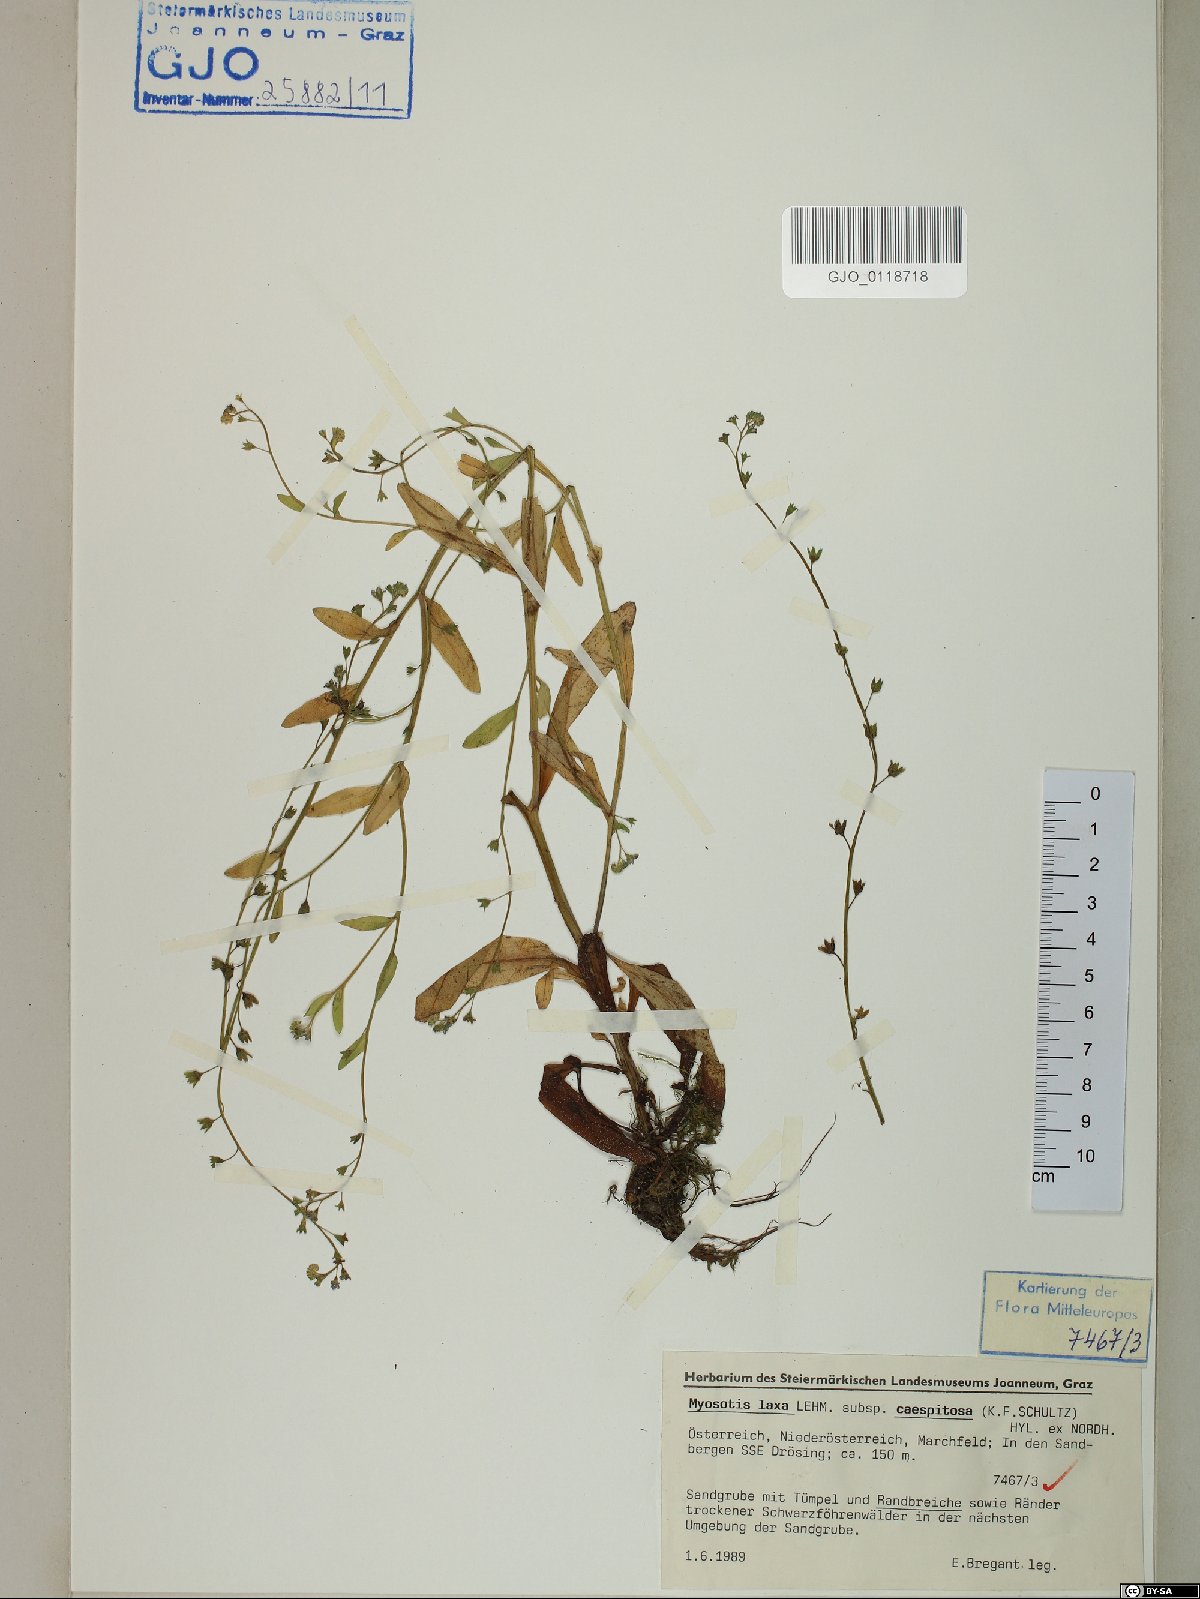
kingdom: Plantae
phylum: Tracheophyta
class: Magnoliopsida
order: Boraginales
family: Boraginaceae
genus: Myosotis
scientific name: Myosotis laxa
